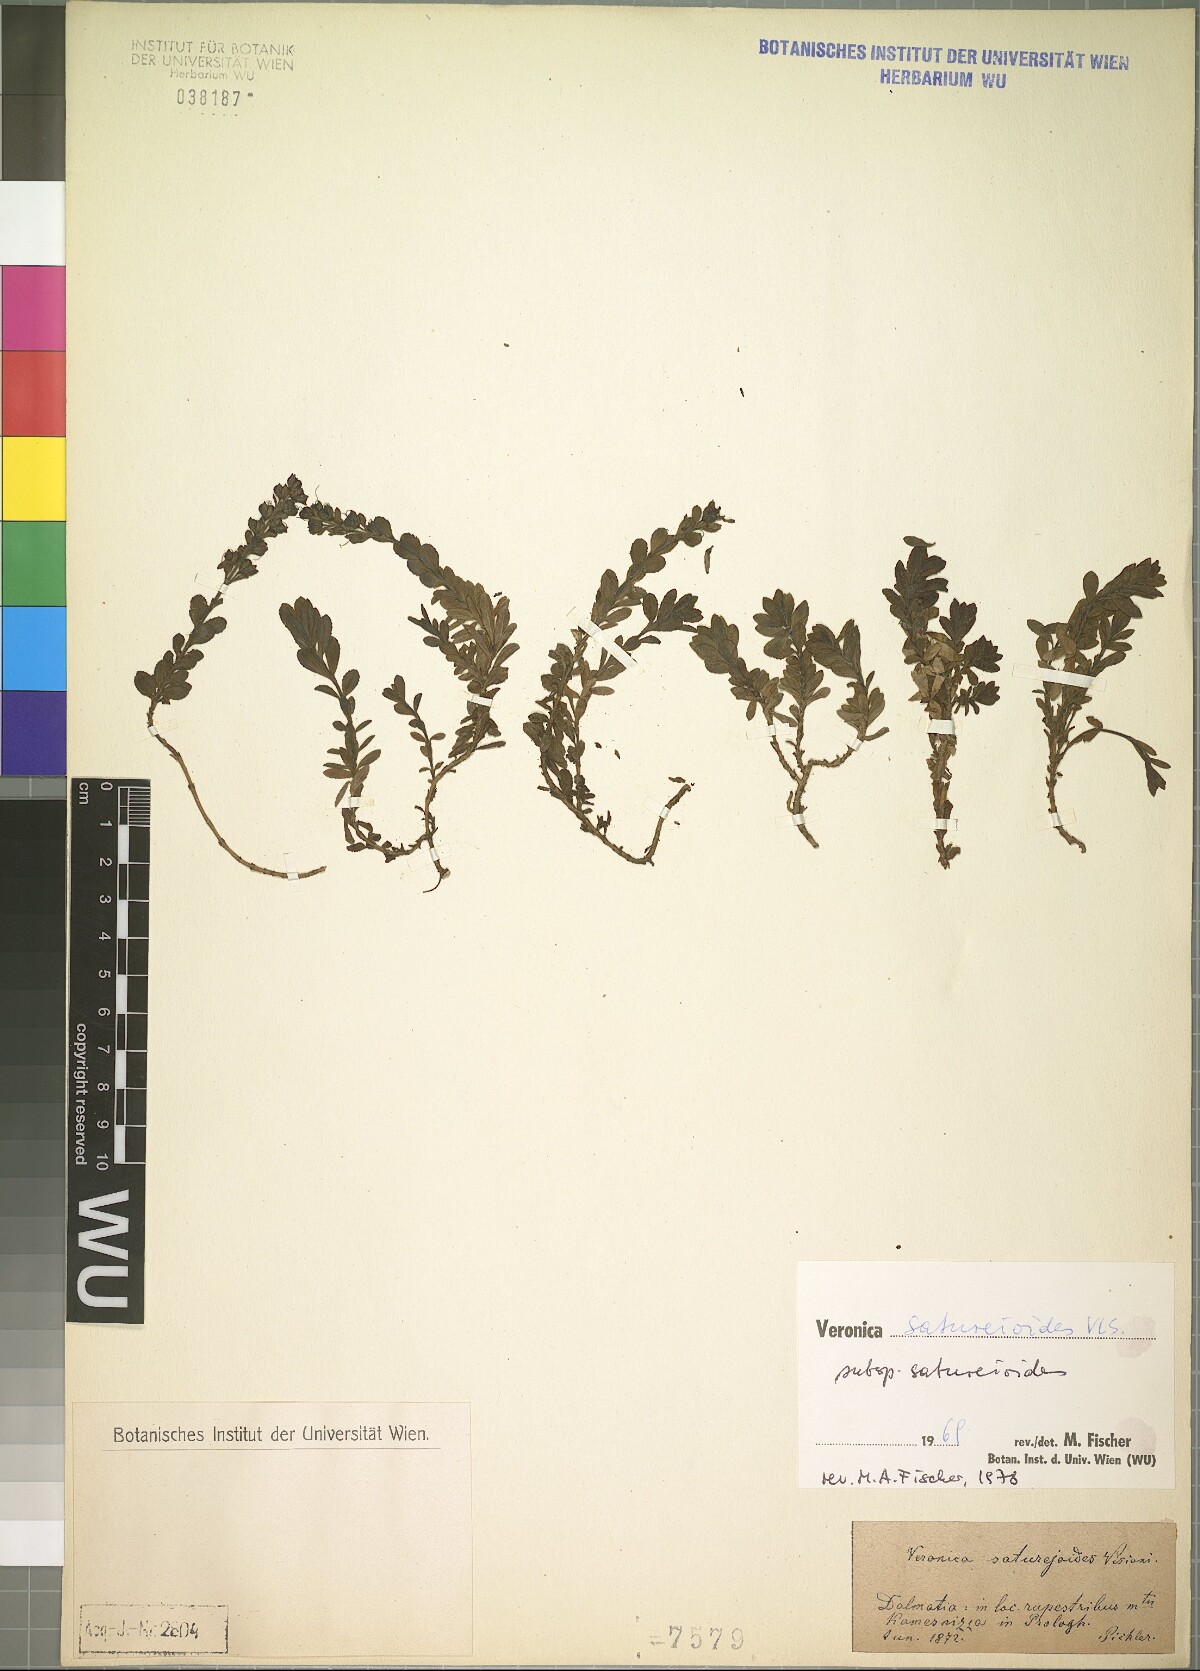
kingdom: Plantae
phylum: Tracheophyta
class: Magnoliopsida
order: Lamiales
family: Plantaginaceae
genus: Veronica
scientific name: Veronica saturejoides
